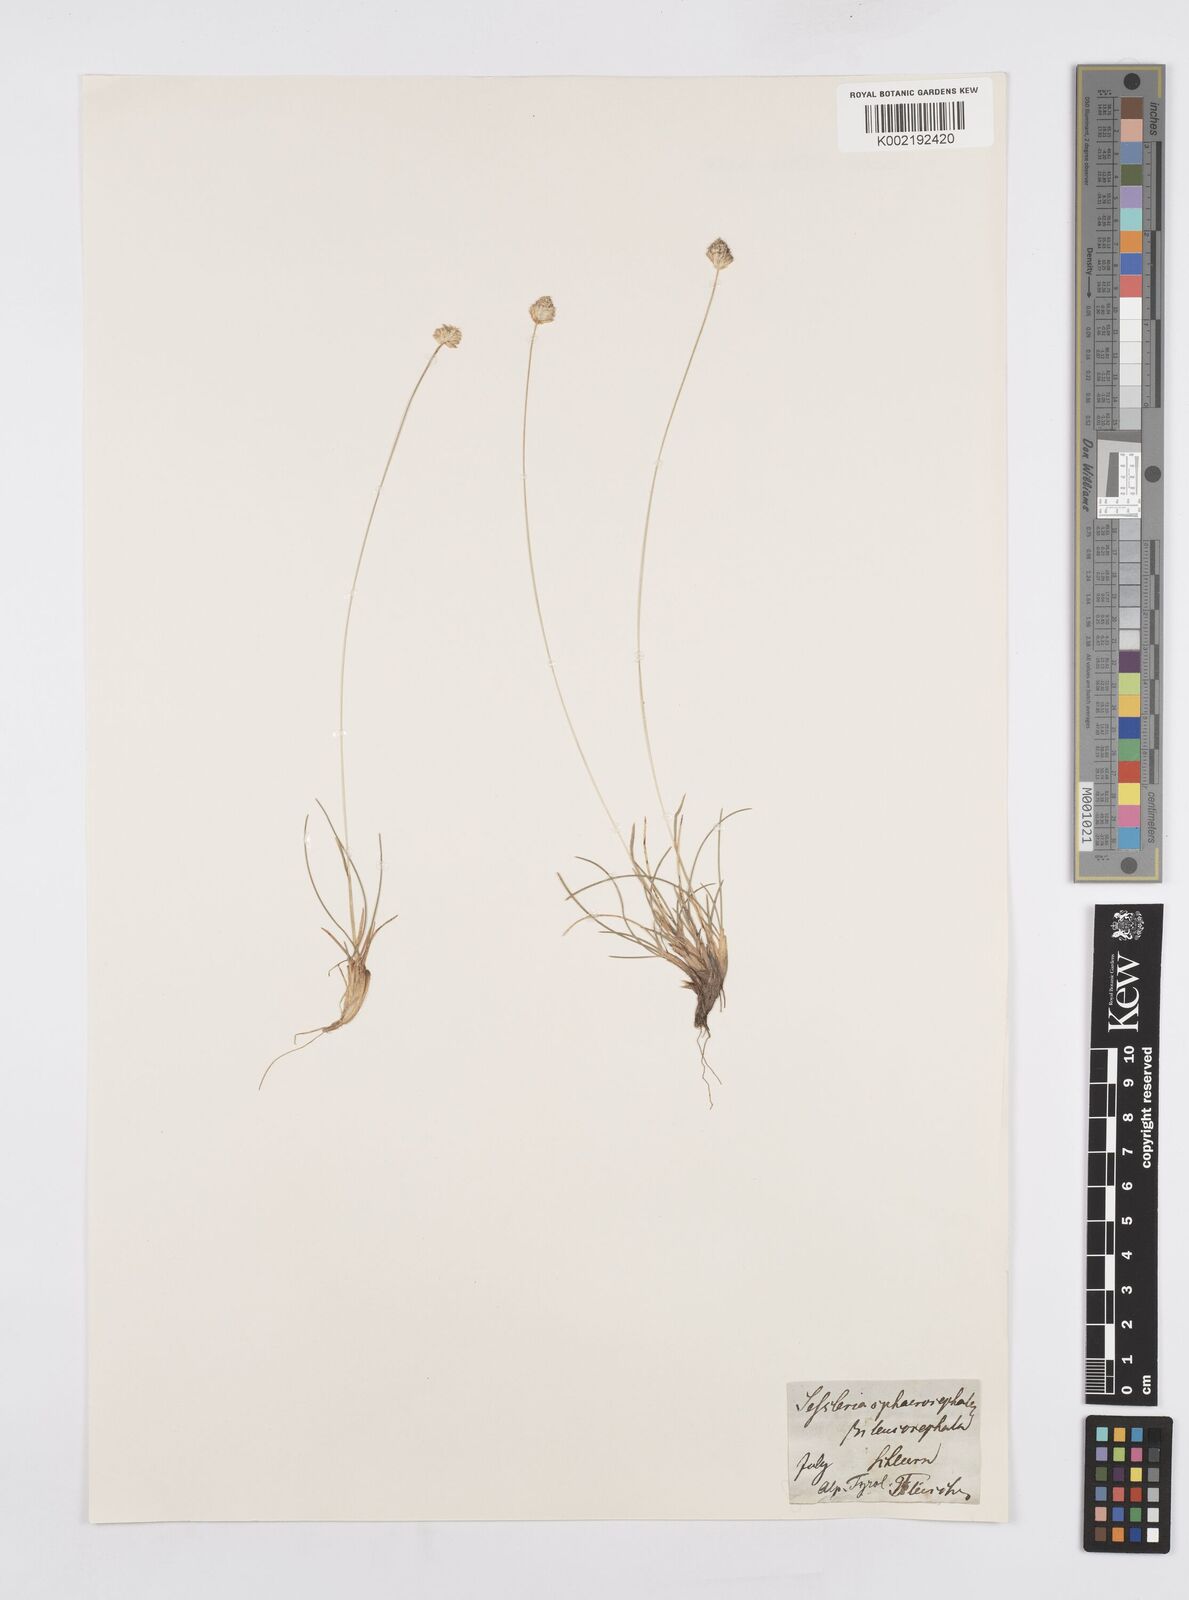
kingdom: Plantae
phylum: Tracheophyta
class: Liliopsida
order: Poales
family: Poaceae
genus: Sesleriella
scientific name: Sesleriella sphaerocephala
